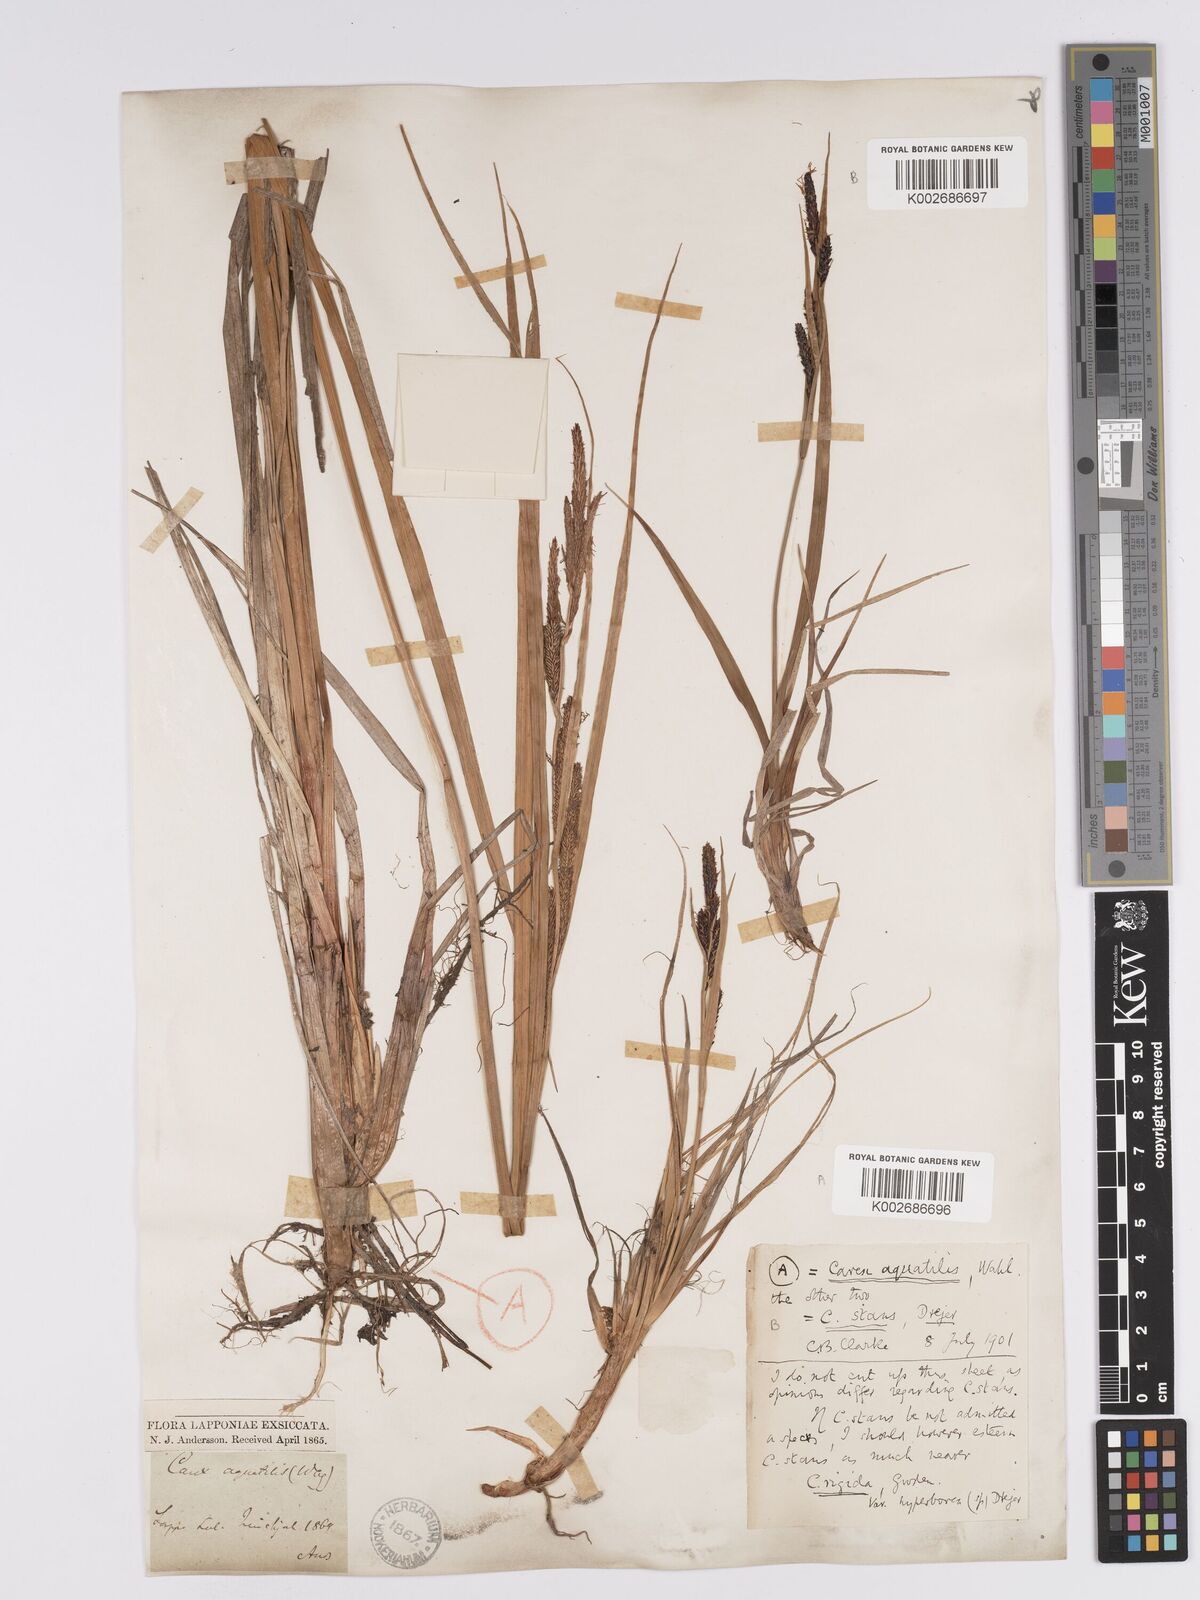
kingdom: Plantae
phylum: Tracheophyta
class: Liliopsida
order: Poales
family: Cyperaceae
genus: Carex
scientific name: Carex aquatilis
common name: Water sedge
